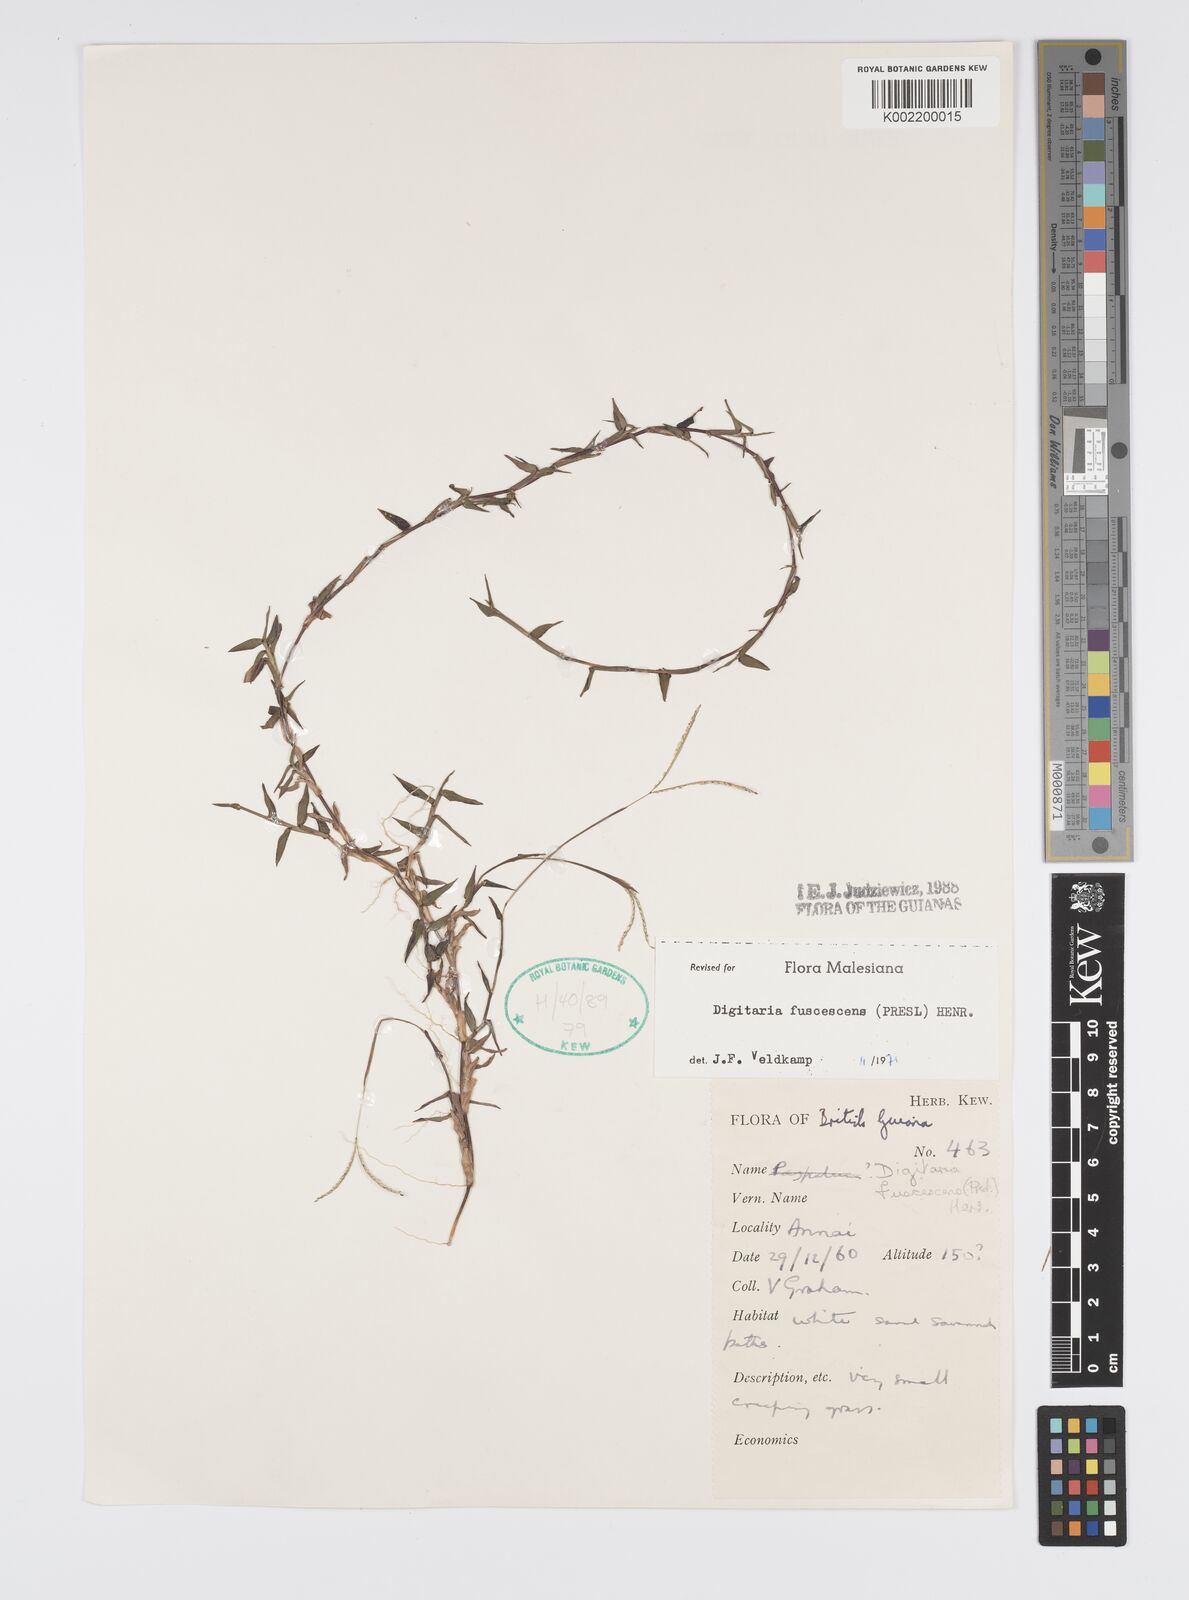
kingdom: Plantae
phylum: Tracheophyta
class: Liliopsida
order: Poales
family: Poaceae
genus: Digitaria
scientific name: Digitaria fuscescens
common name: Yellow crabgrass
